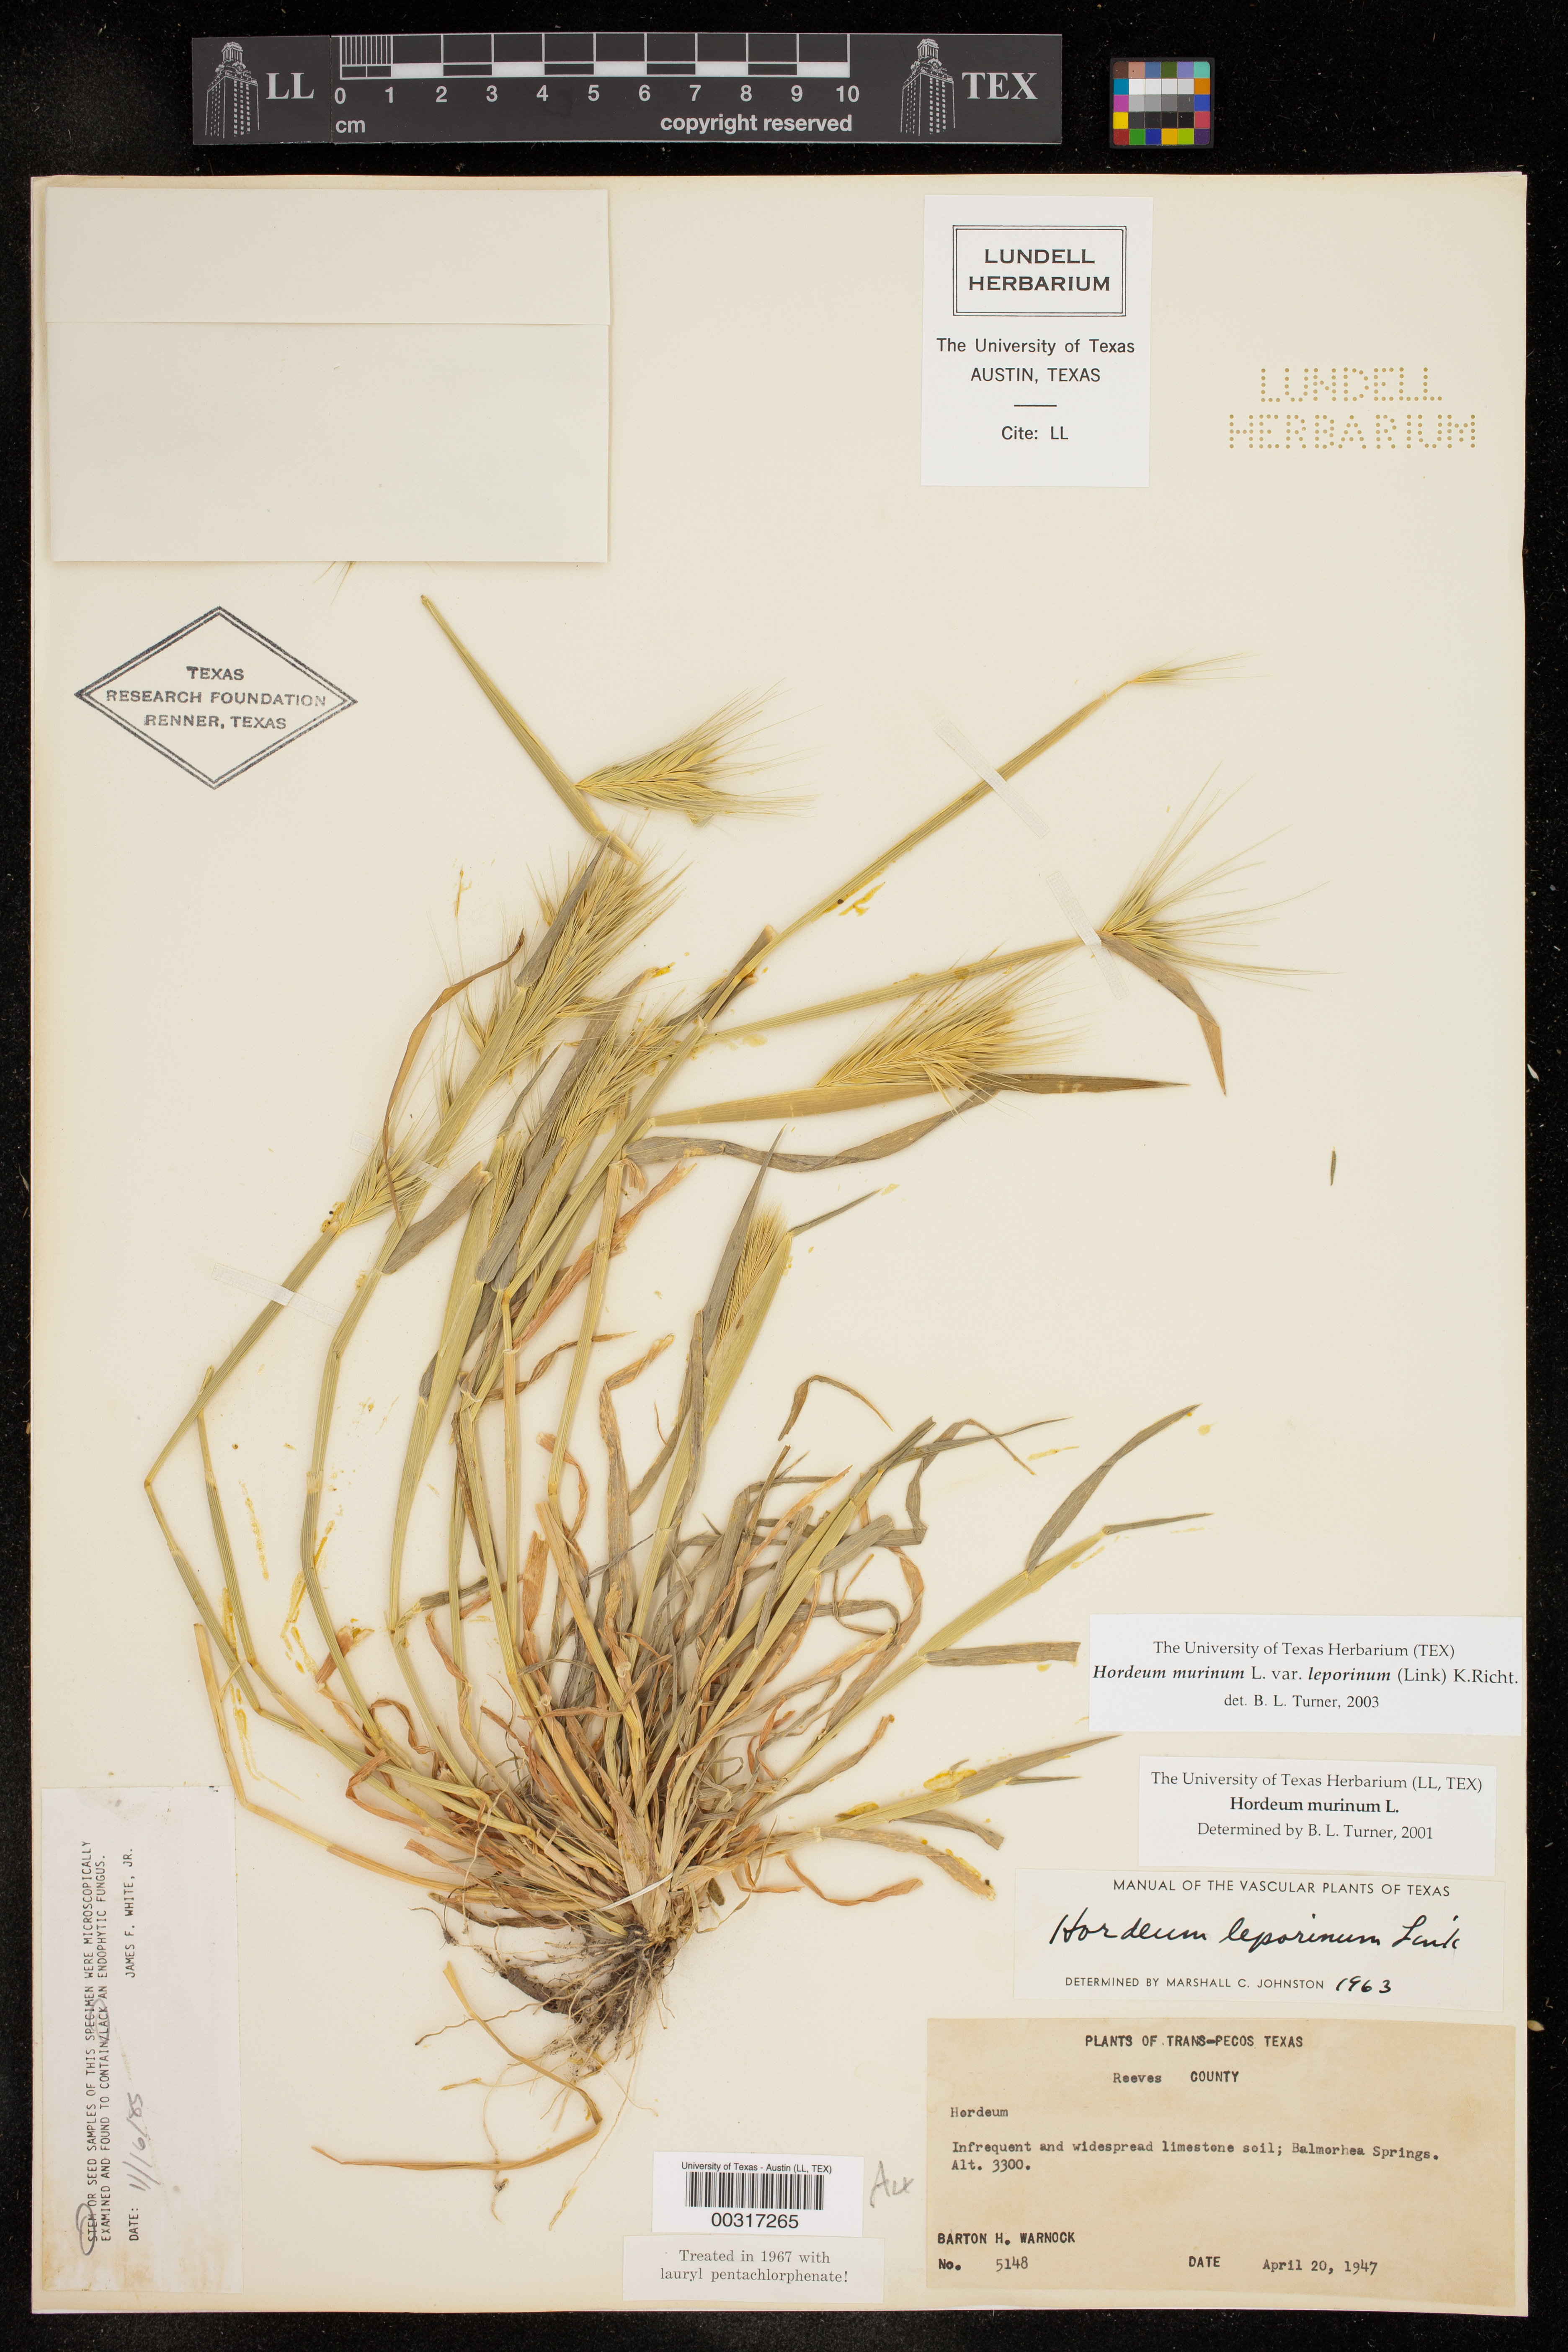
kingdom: Plantae
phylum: Tracheophyta
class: Liliopsida
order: Poales
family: Poaceae
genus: Hordeum
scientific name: Hordeum murinum
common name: Wall barley
